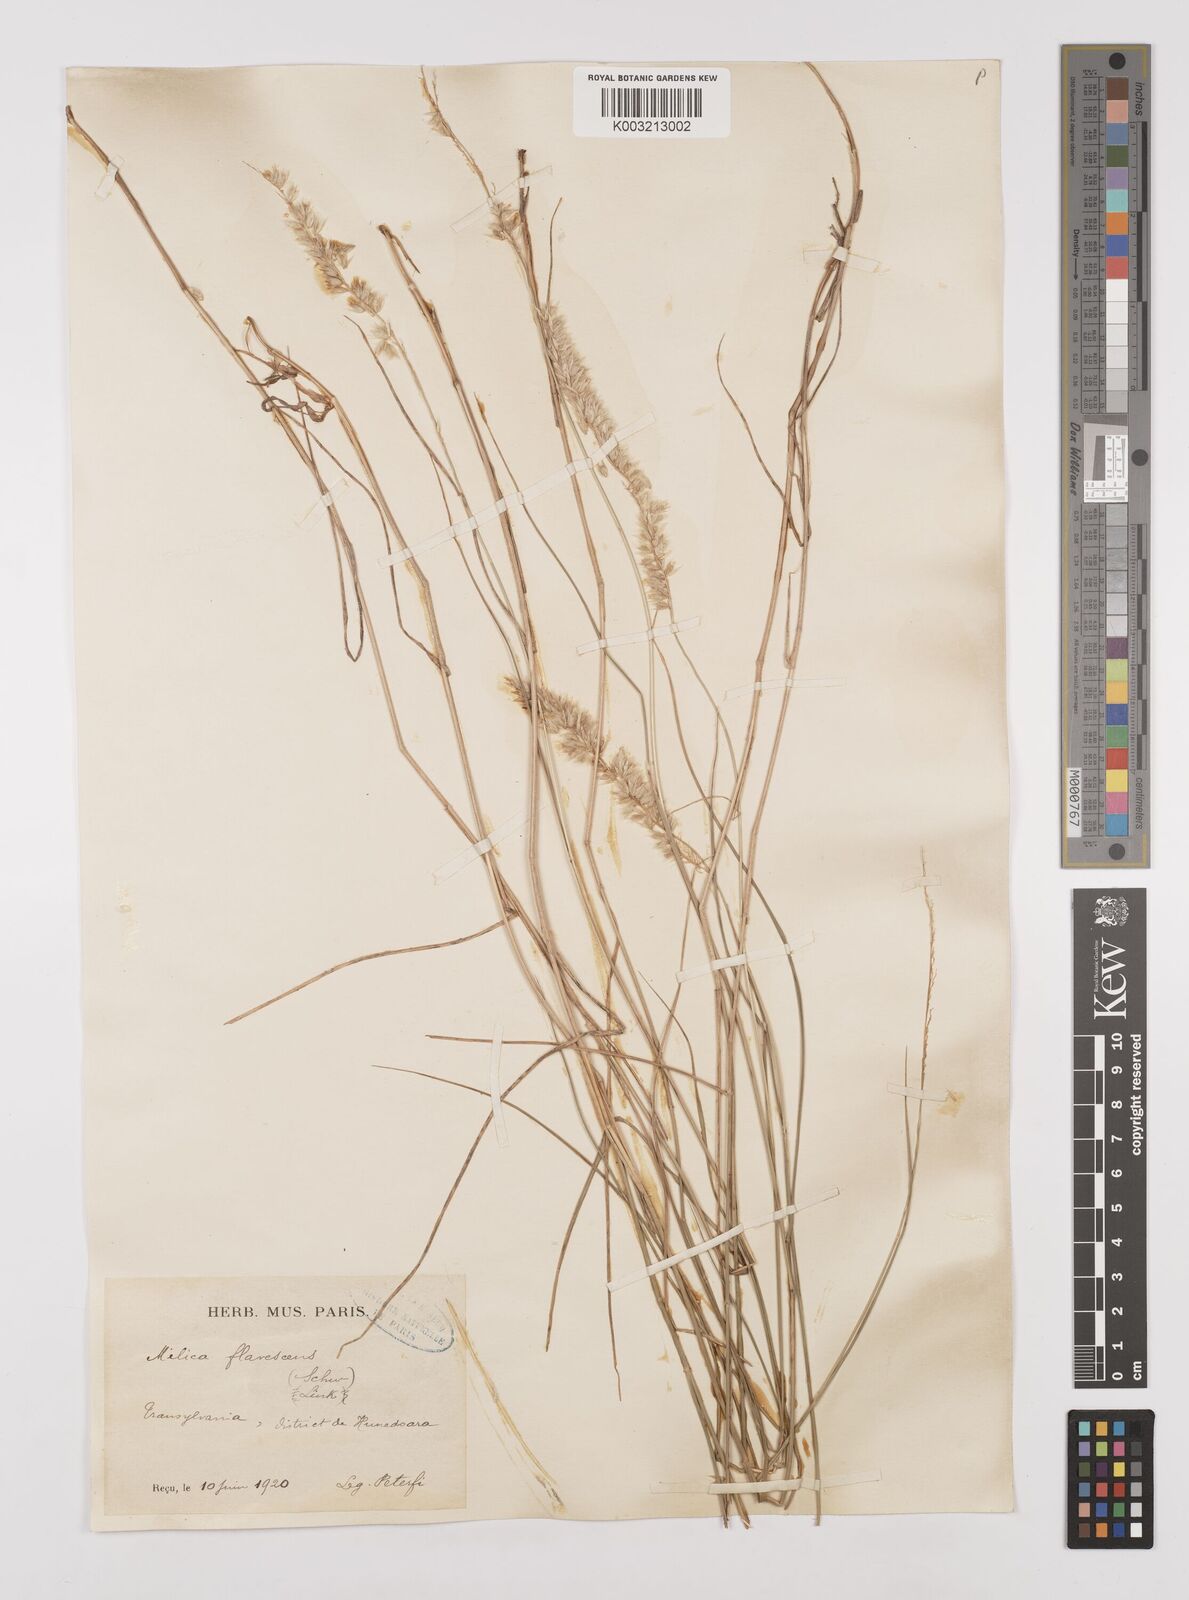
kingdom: Plantae
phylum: Tracheophyta
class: Liliopsida
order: Poales
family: Poaceae
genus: Melica
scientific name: Melica transsilvanica
